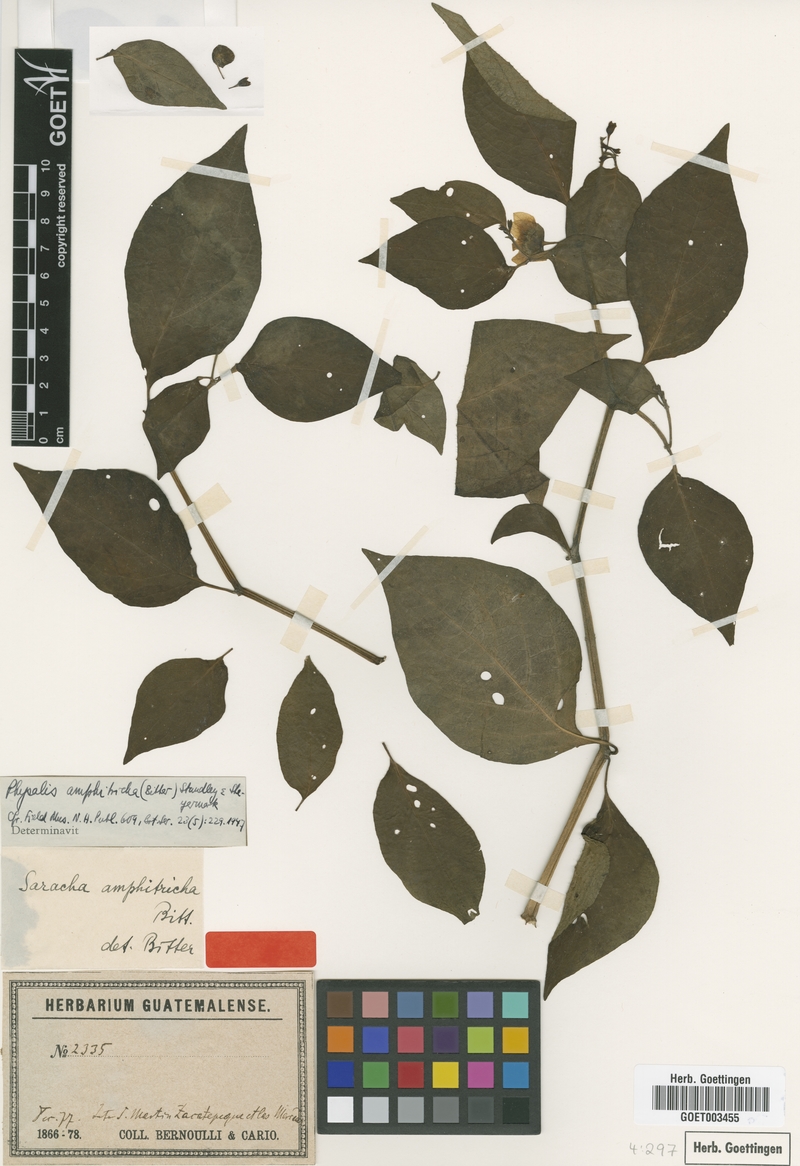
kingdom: Plantae
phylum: Tracheophyta
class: Magnoliopsida
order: Solanales
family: Solanaceae
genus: Tzeltalia
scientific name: Tzeltalia amphitricha
